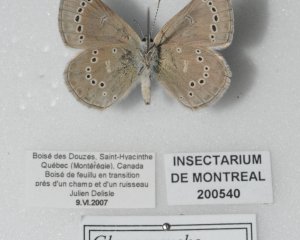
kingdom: Animalia
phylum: Arthropoda
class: Insecta
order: Lepidoptera
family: Lycaenidae
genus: Glaucopsyche
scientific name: Glaucopsyche lygdamus
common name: Silvery Blue
